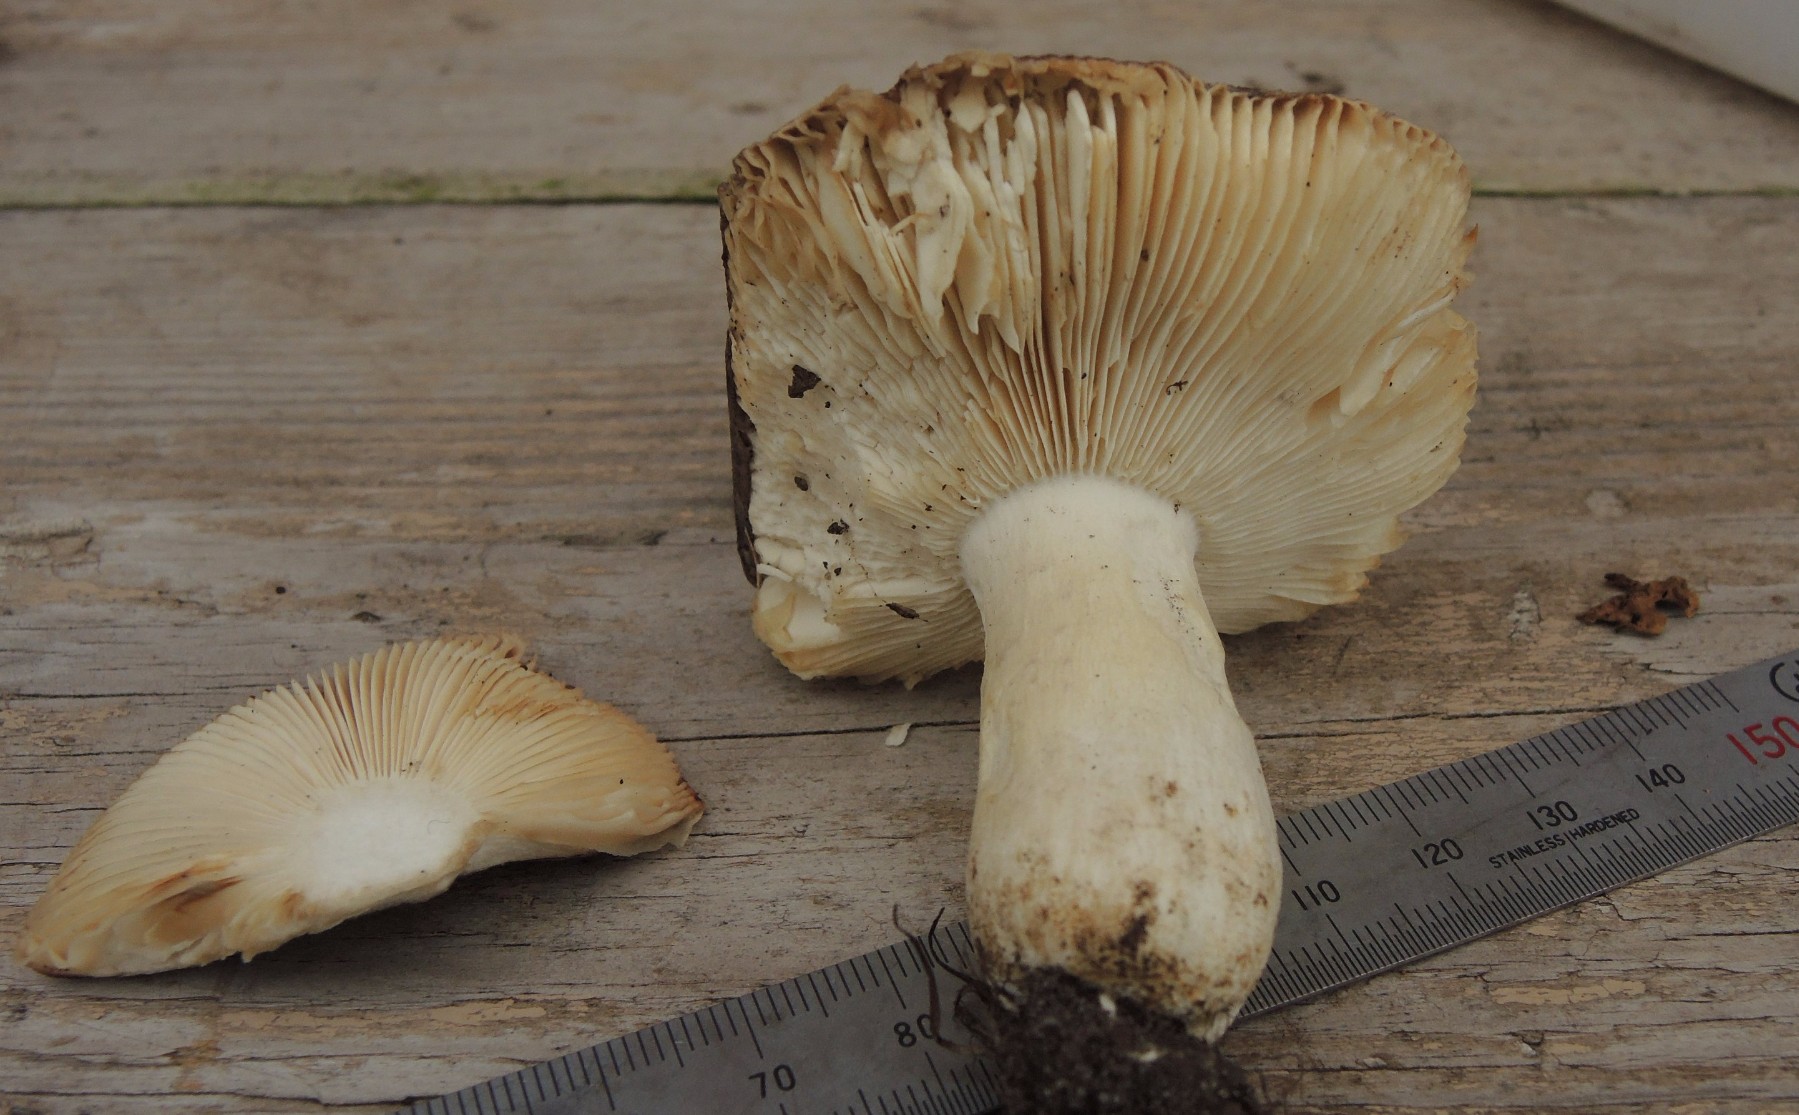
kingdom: Fungi
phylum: Basidiomycota
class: Agaricomycetes
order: Russulales
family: Russulaceae
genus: Russula
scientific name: Russula grisea
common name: grålig skørhat
